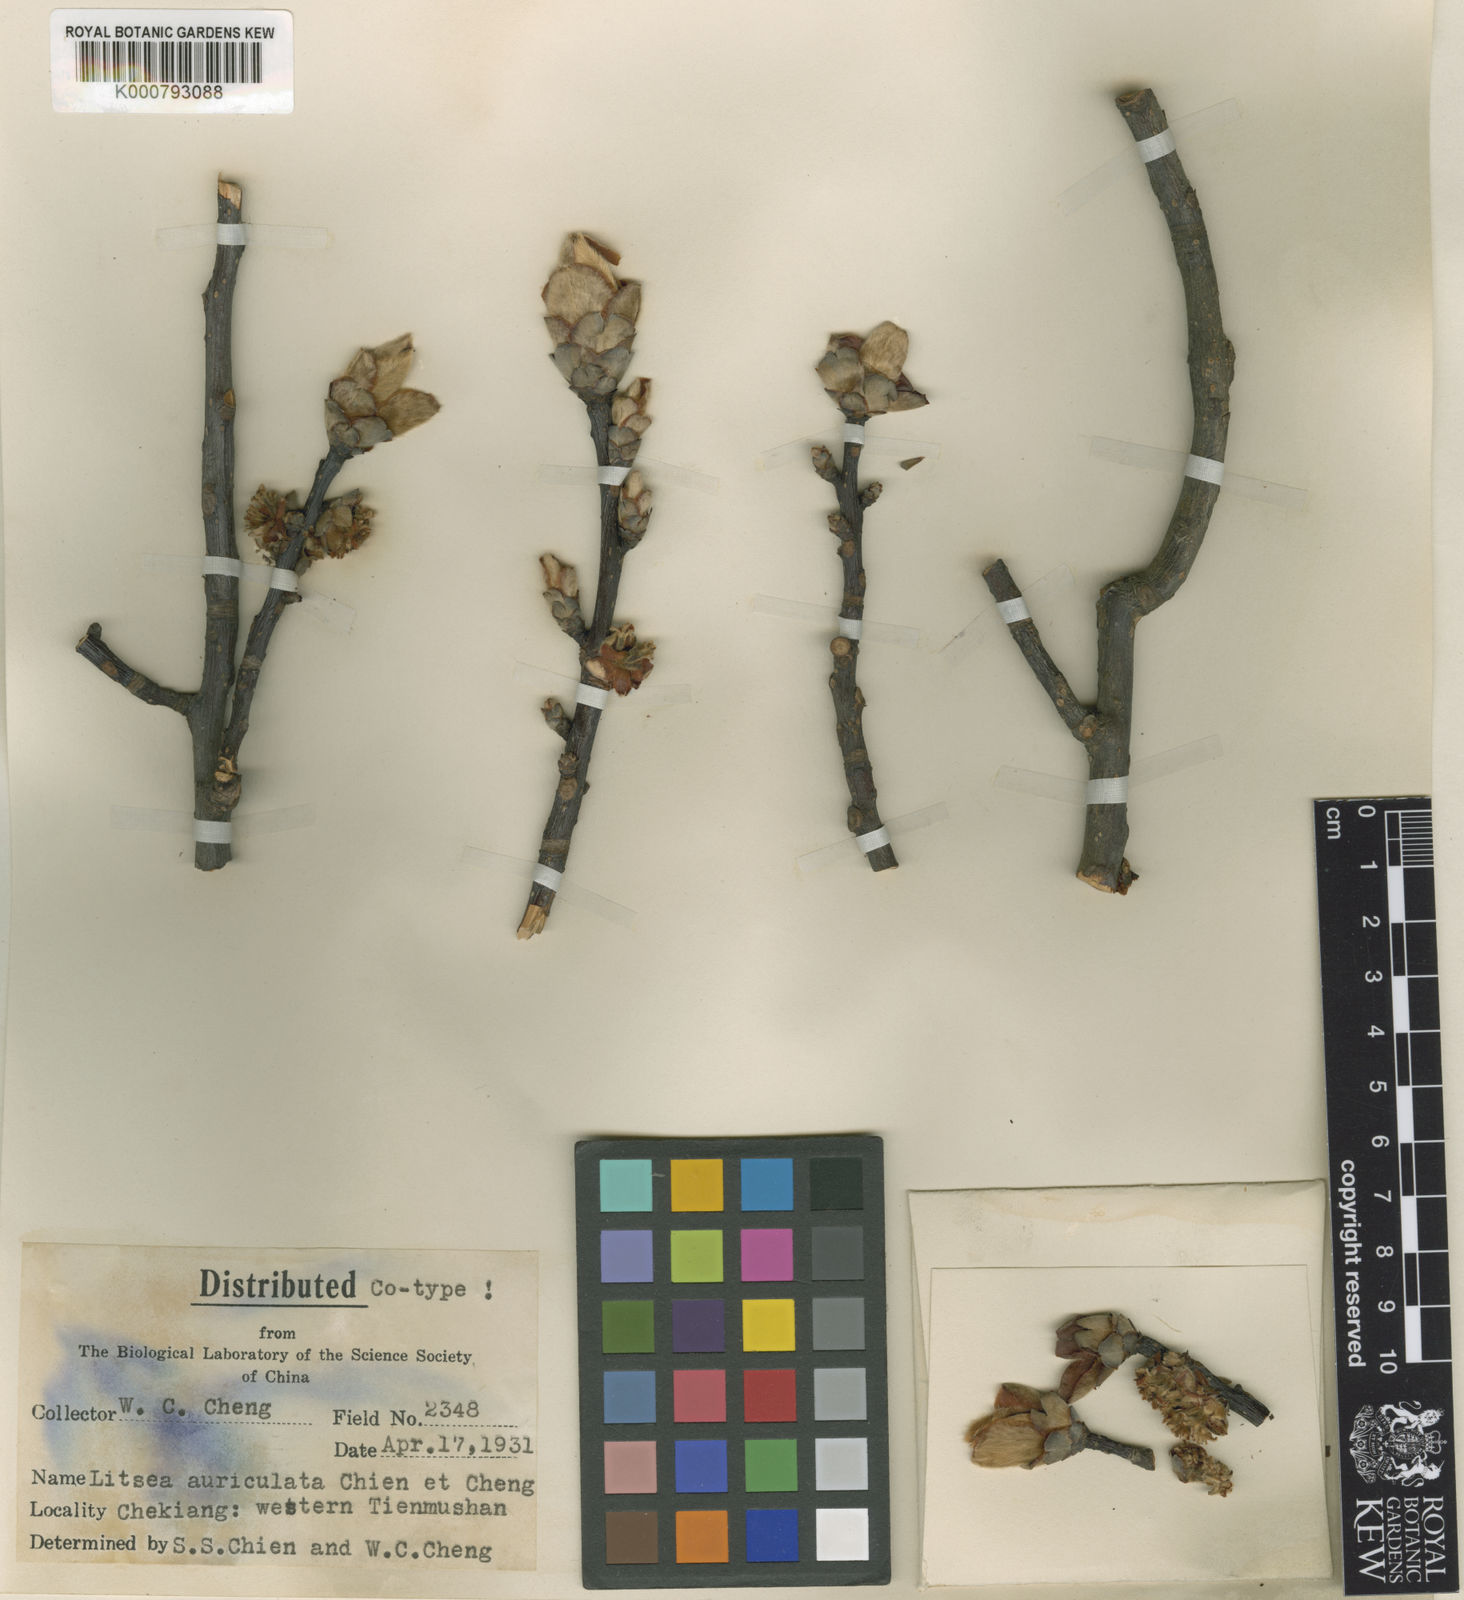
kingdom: Plantae
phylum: Tracheophyta
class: Magnoliopsida
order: Laurales
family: Lauraceae
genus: Litsea
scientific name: Litsea auriculata
